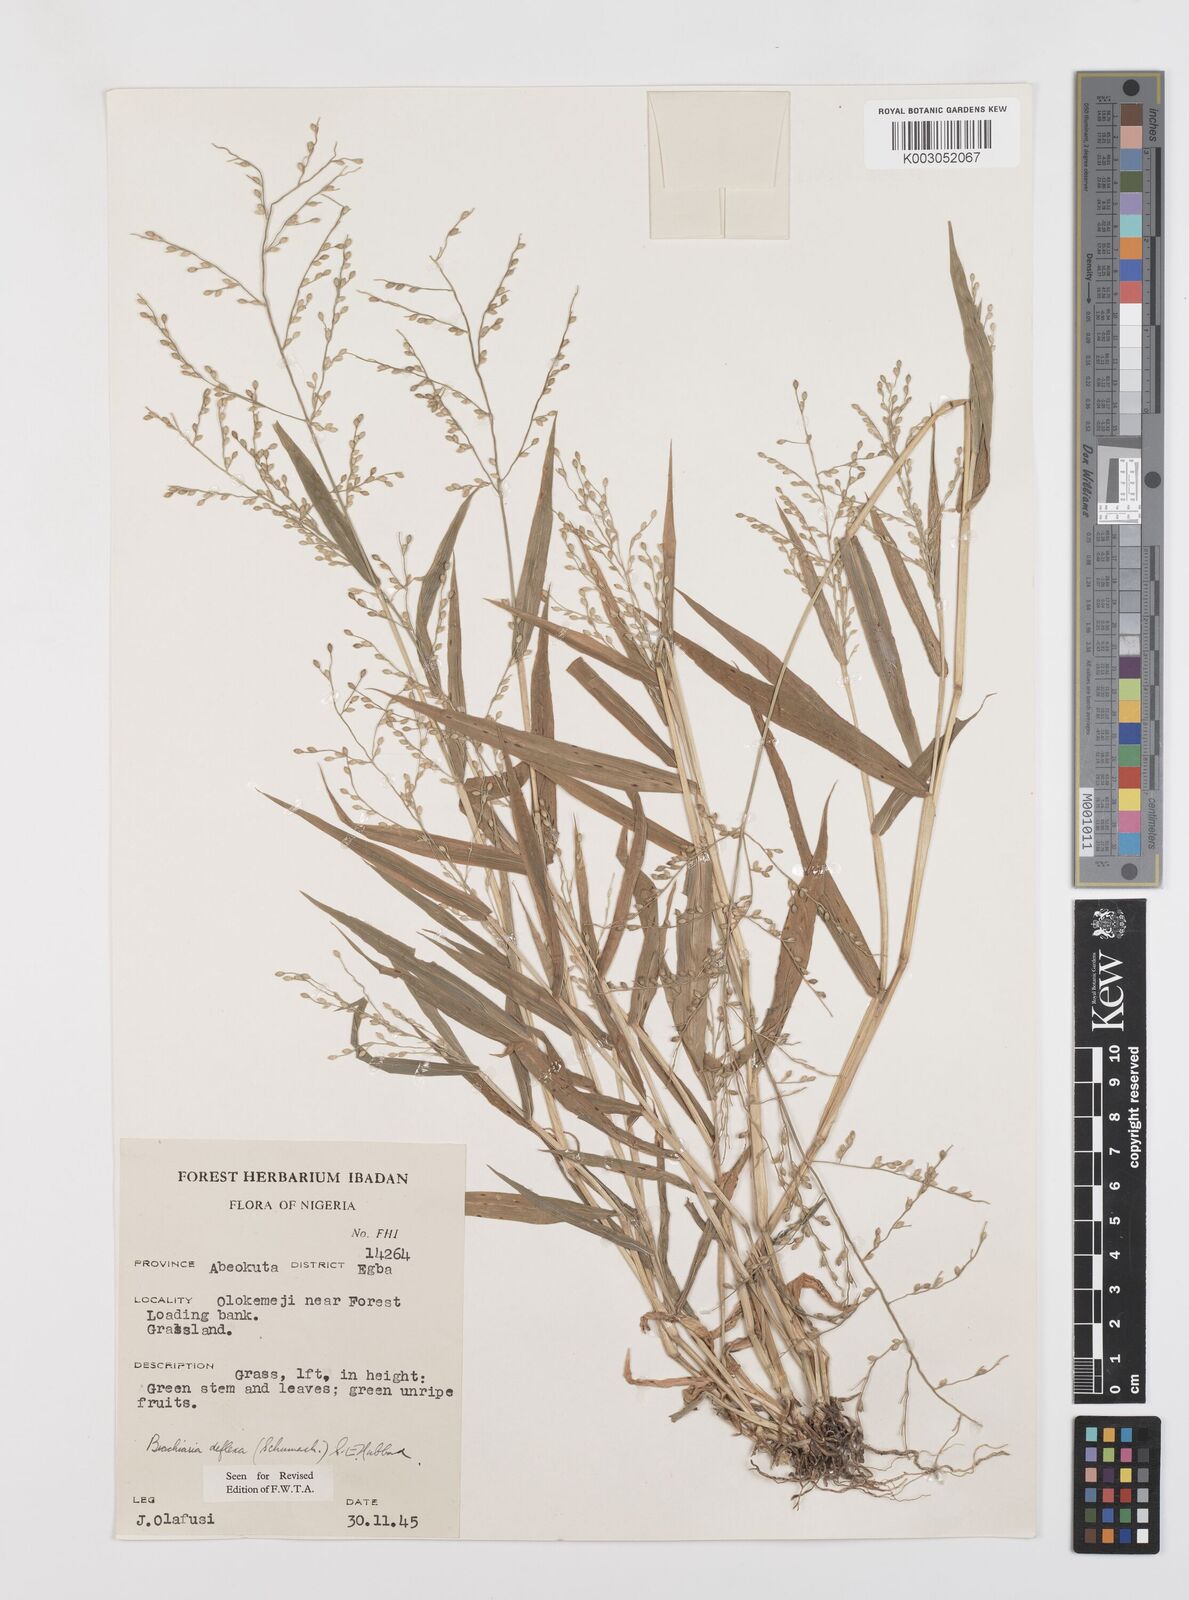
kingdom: Plantae
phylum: Tracheophyta
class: Liliopsida
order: Poales
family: Poaceae
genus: Urochloa
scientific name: Urochloa deflexa
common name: Guinea millet
